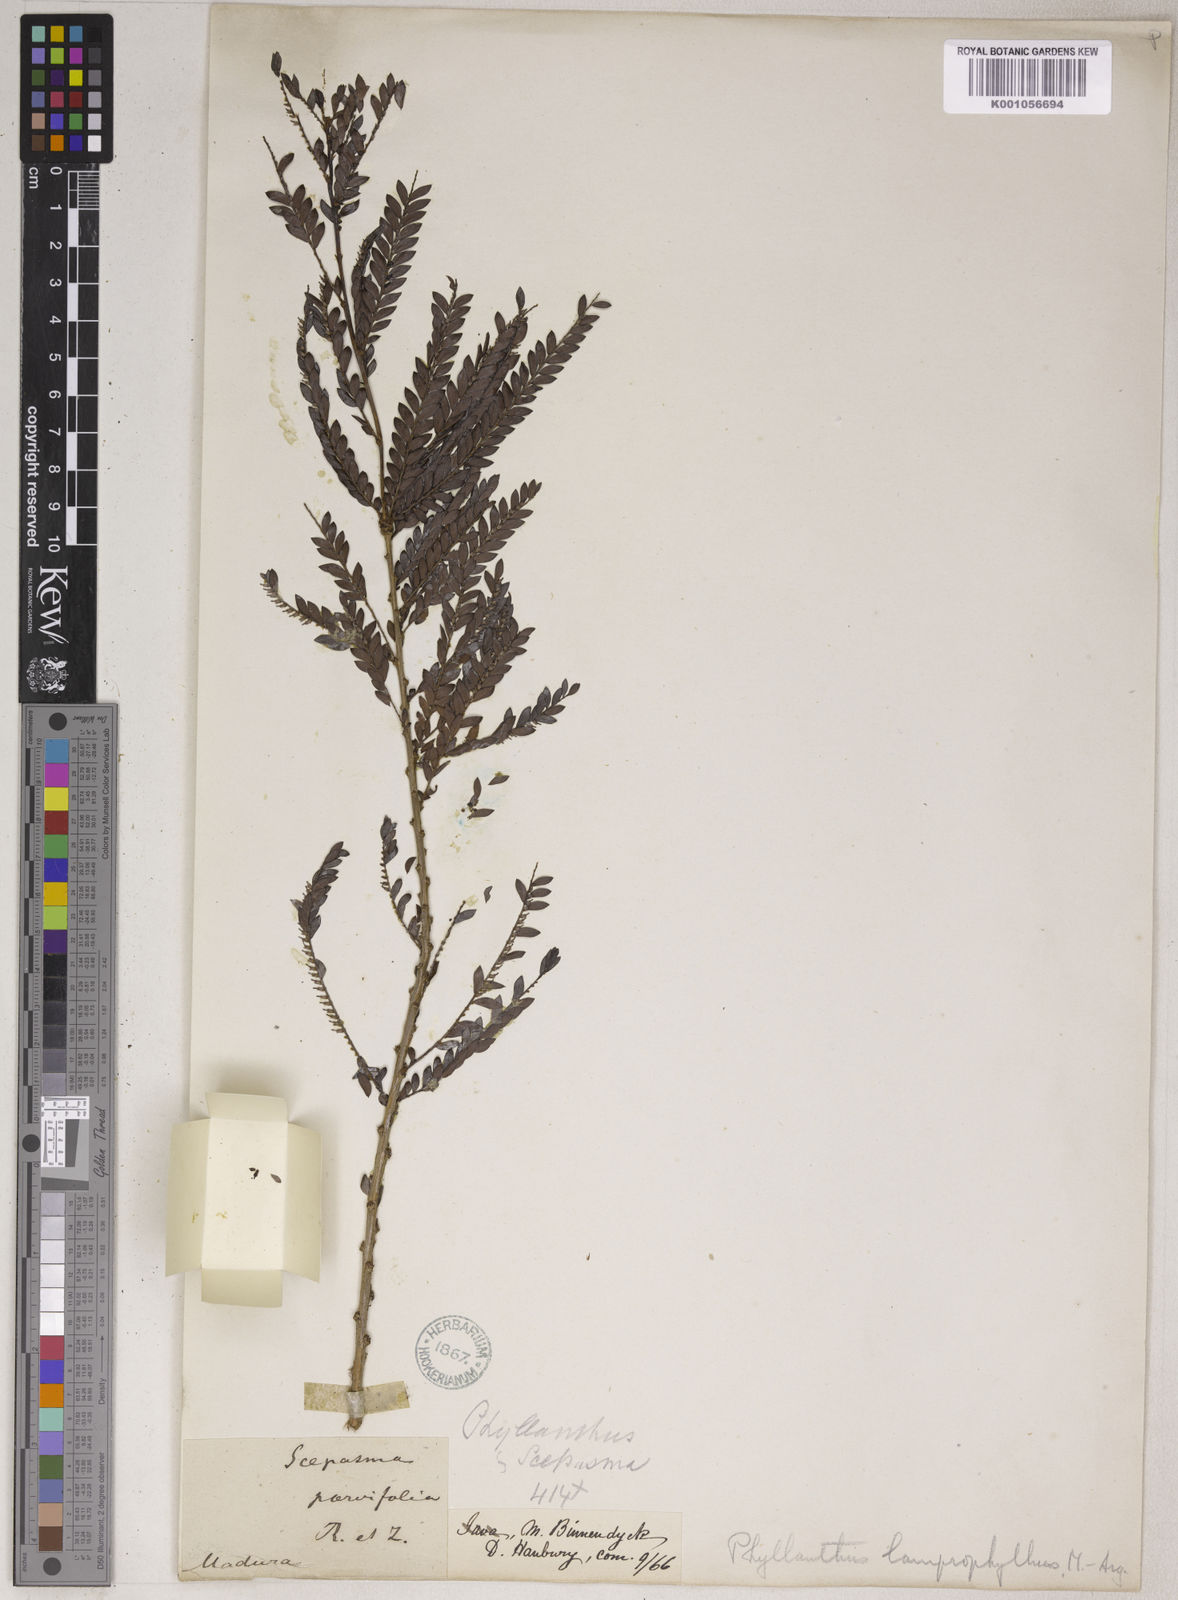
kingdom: Plantae
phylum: Tracheophyta
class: Magnoliopsida
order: Malpighiales
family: Phyllanthaceae
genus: Phyllanthus
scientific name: Phyllanthus
